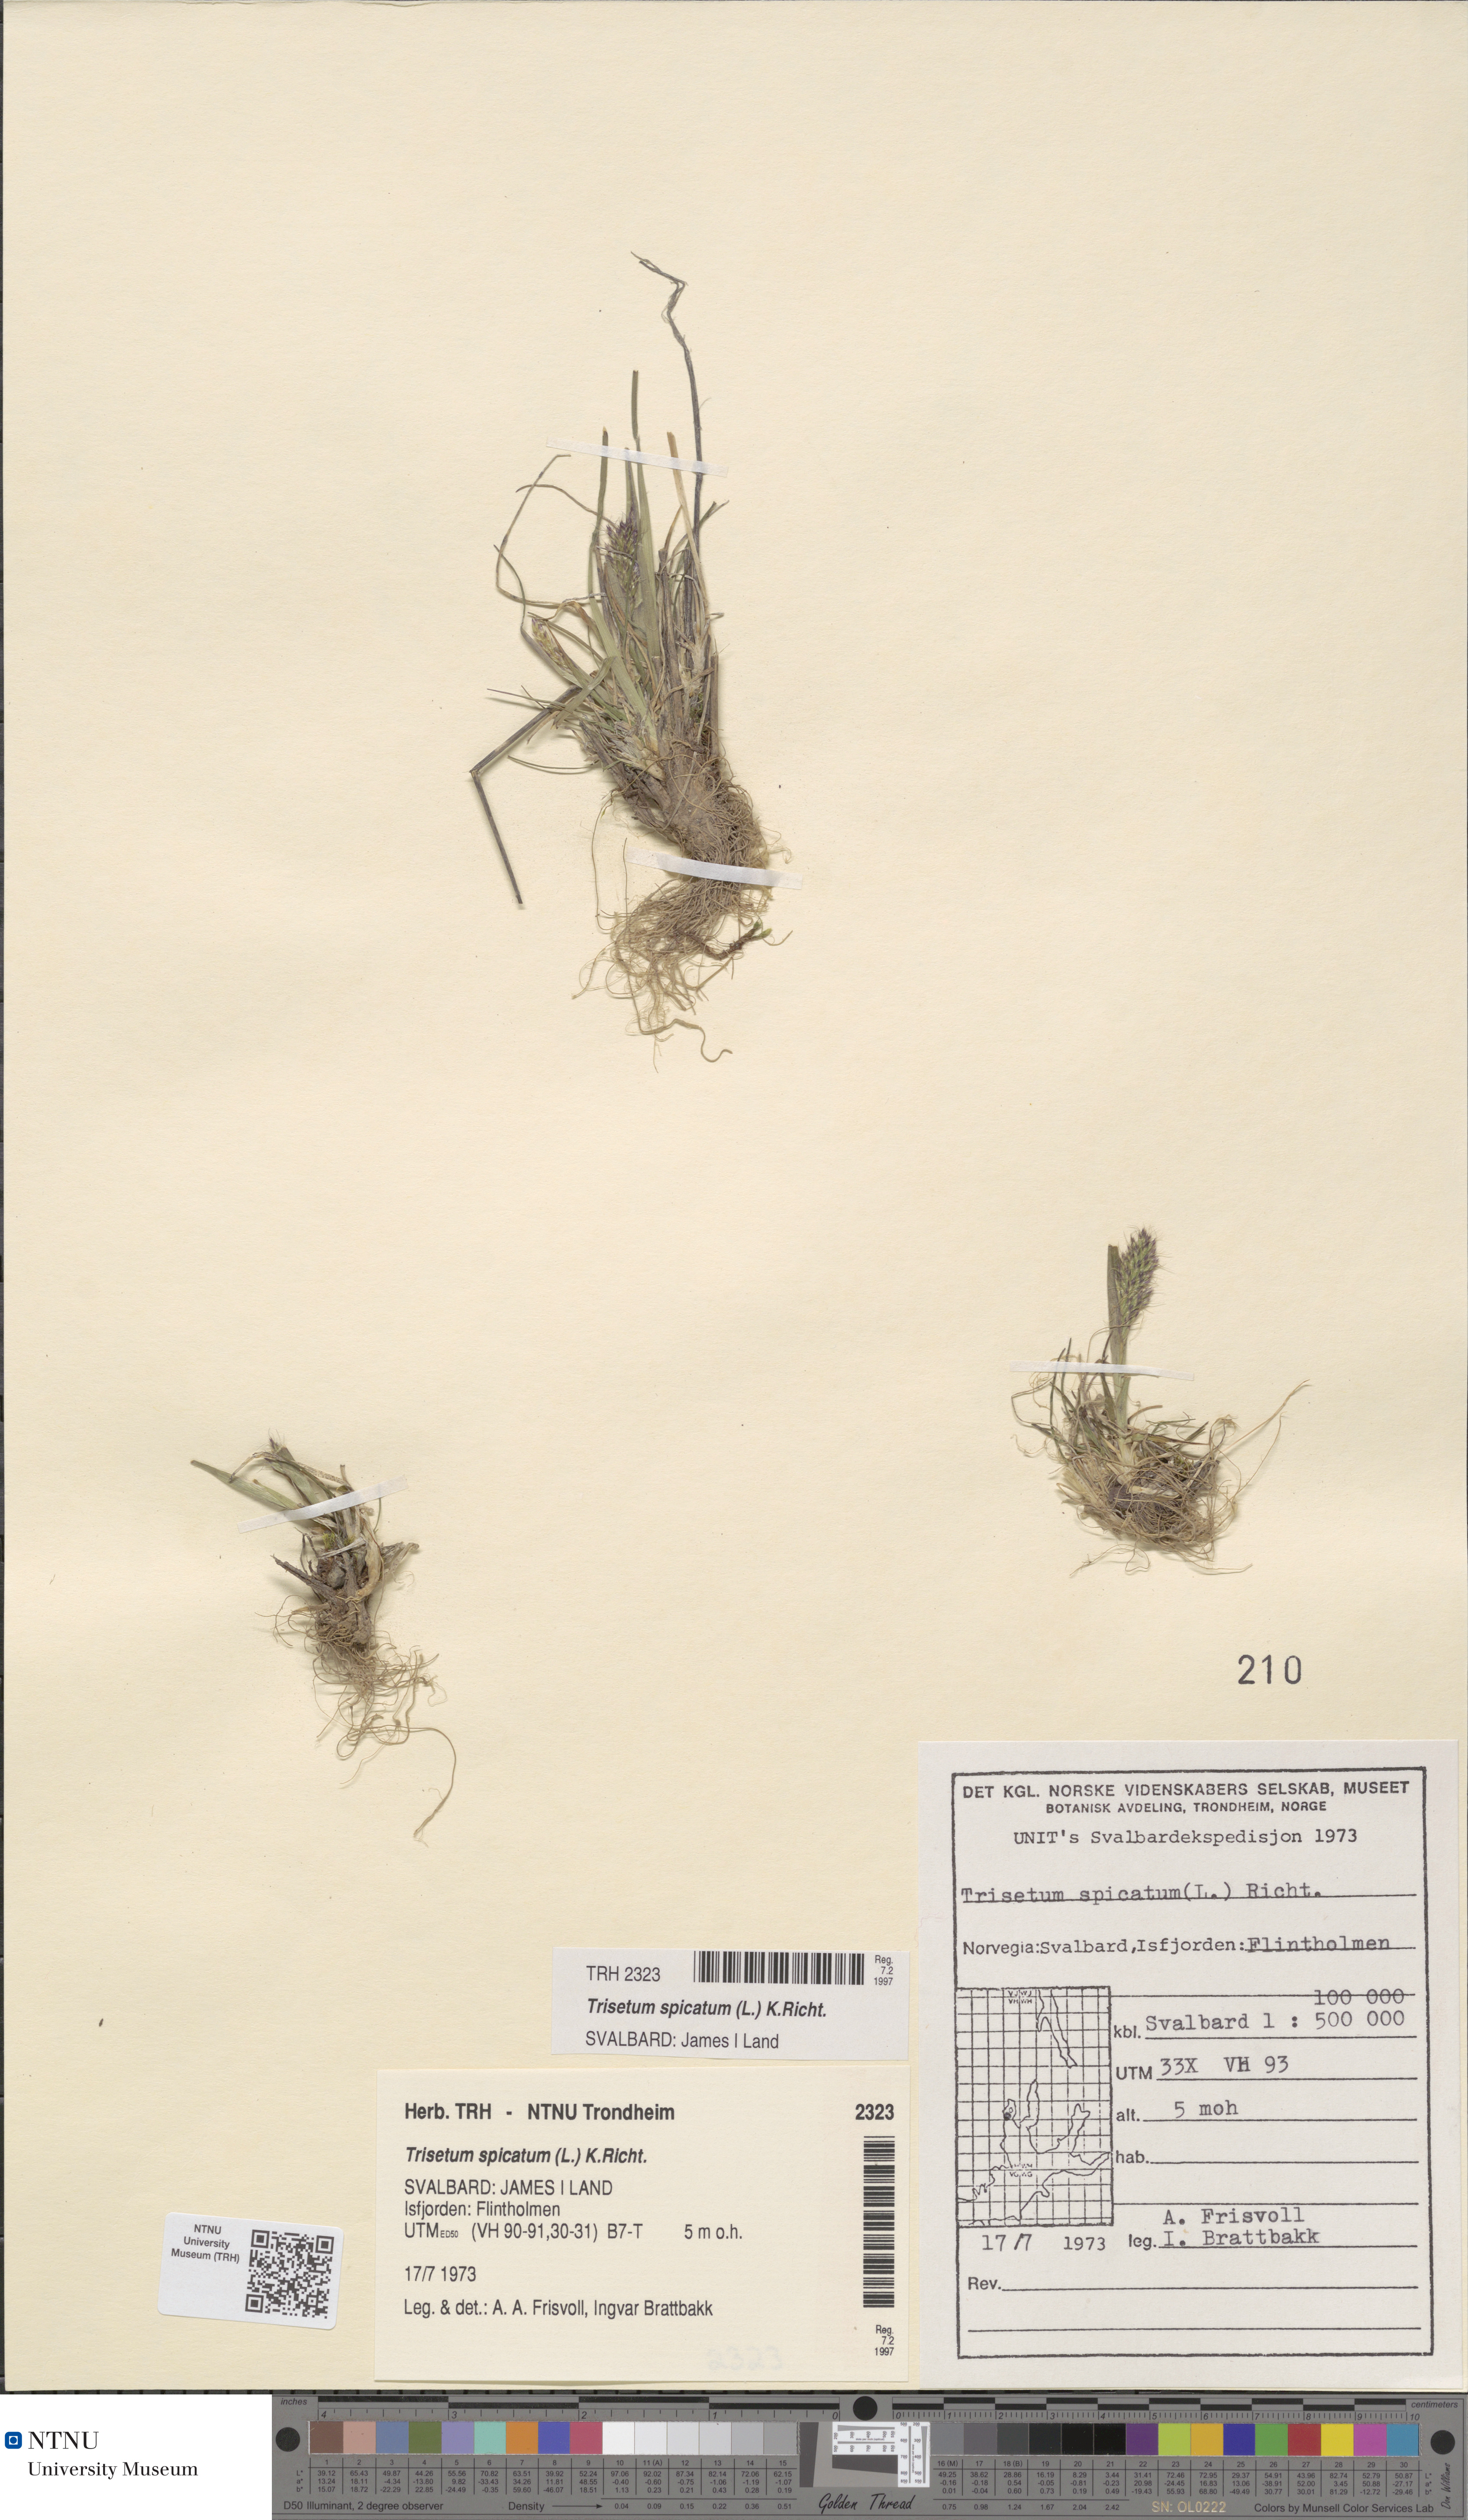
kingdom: Plantae
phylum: Tracheophyta
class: Liliopsida
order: Poales
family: Poaceae
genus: Koeleria
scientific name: Koeleria spicata
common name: Mountain trisetum
